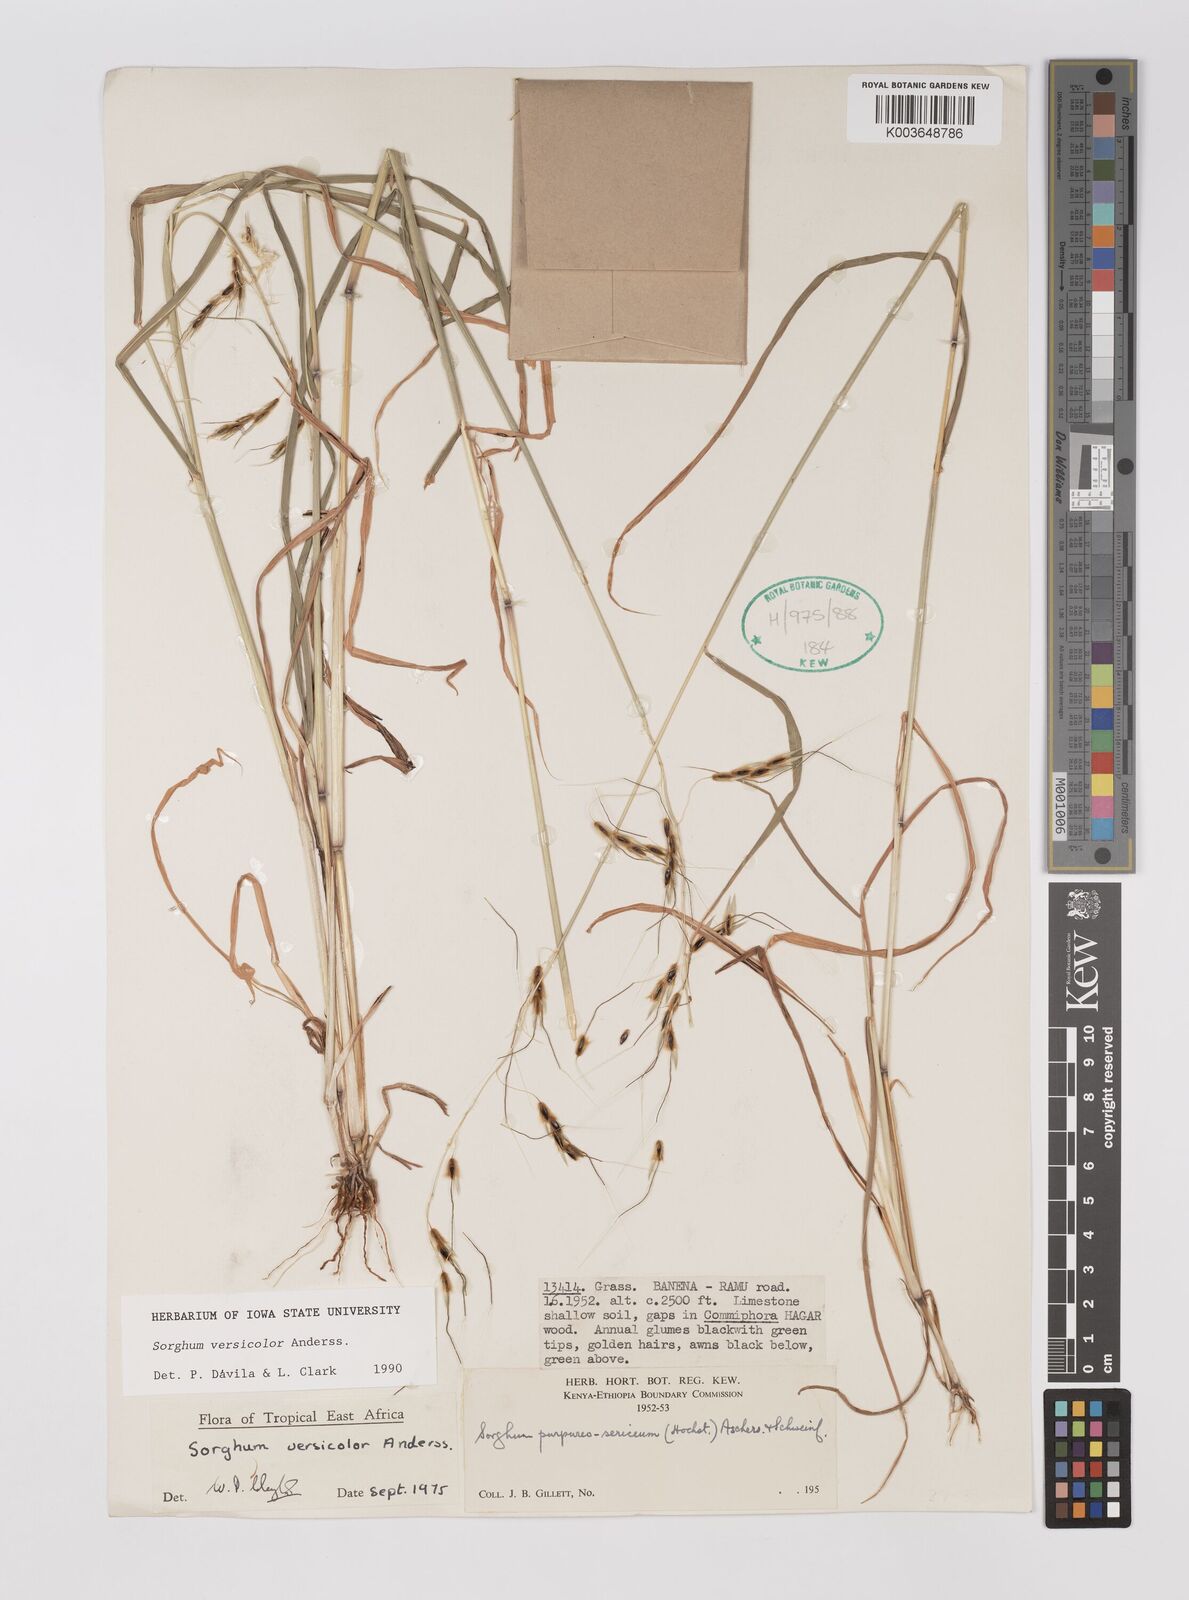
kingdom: Plantae
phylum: Tracheophyta
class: Liliopsida
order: Poales
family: Poaceae
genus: Sarga
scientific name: Sarga versicolor
